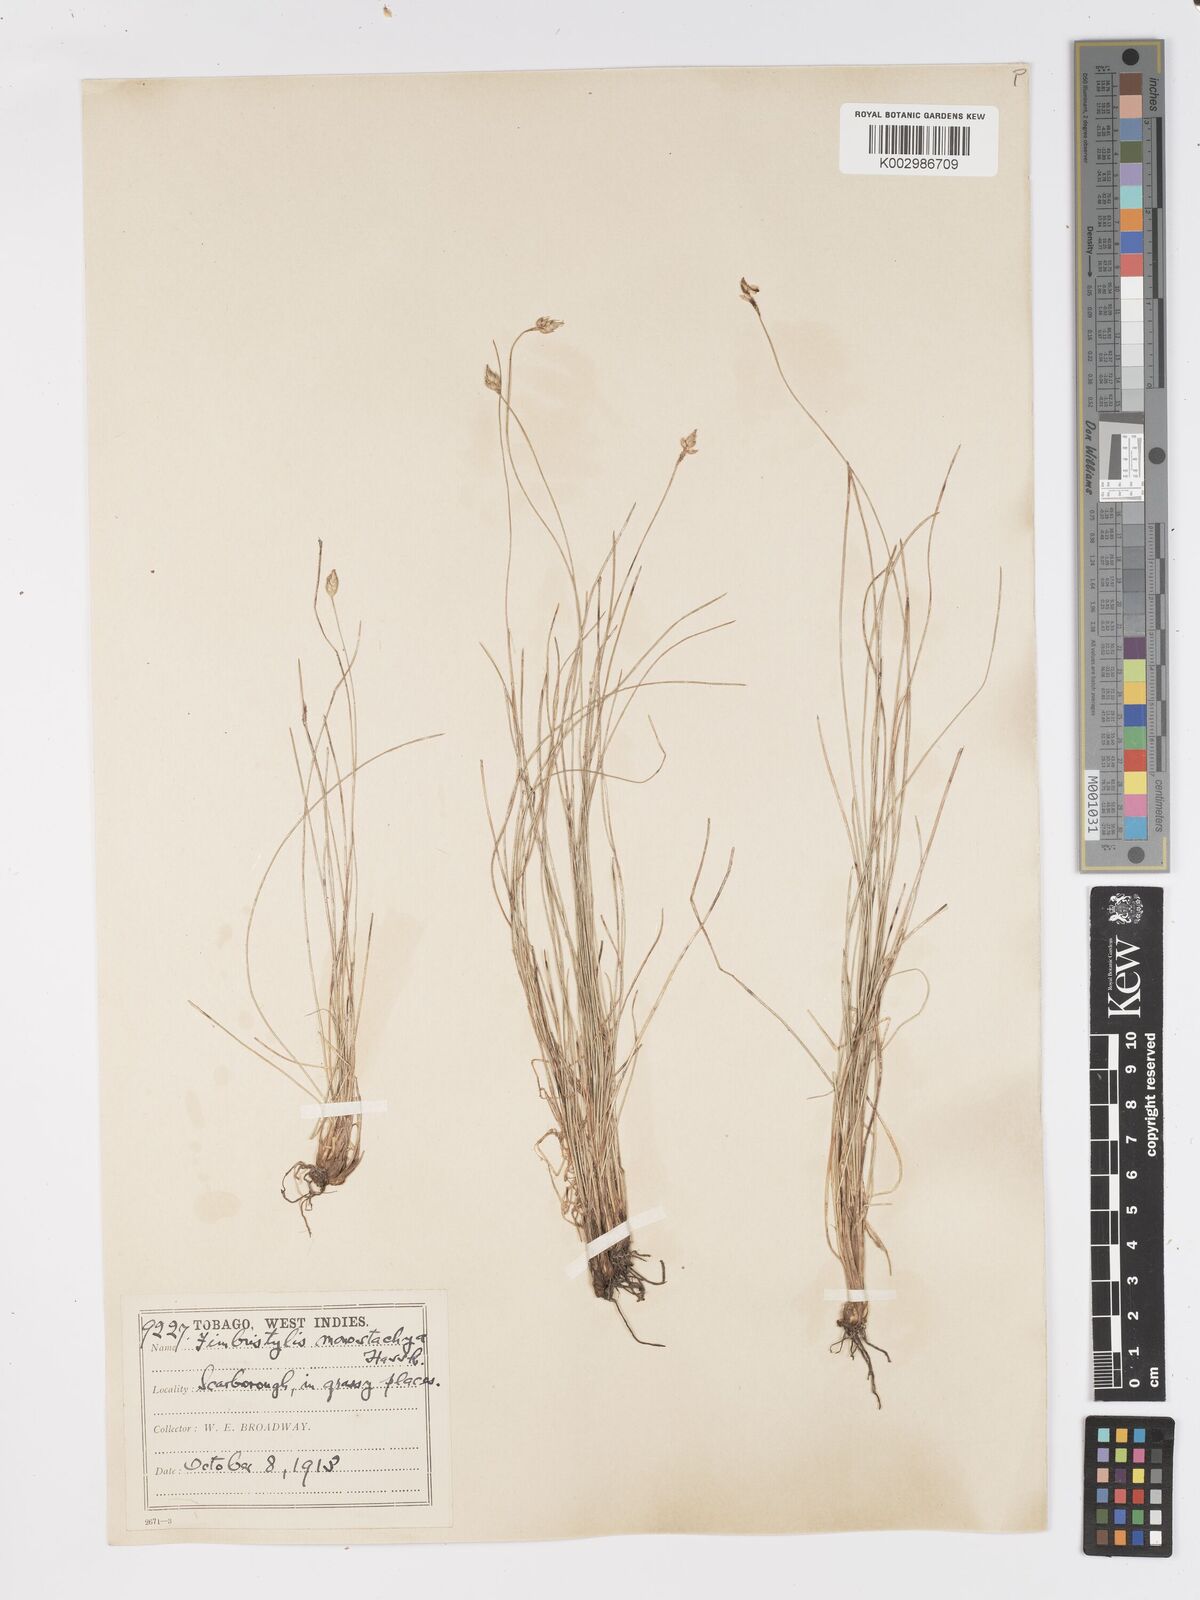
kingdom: Plantae
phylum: Tracheophyta
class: Liliopsida
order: Poales
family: Cyperaceae
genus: Fimbristylis
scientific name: Fimbristylis
